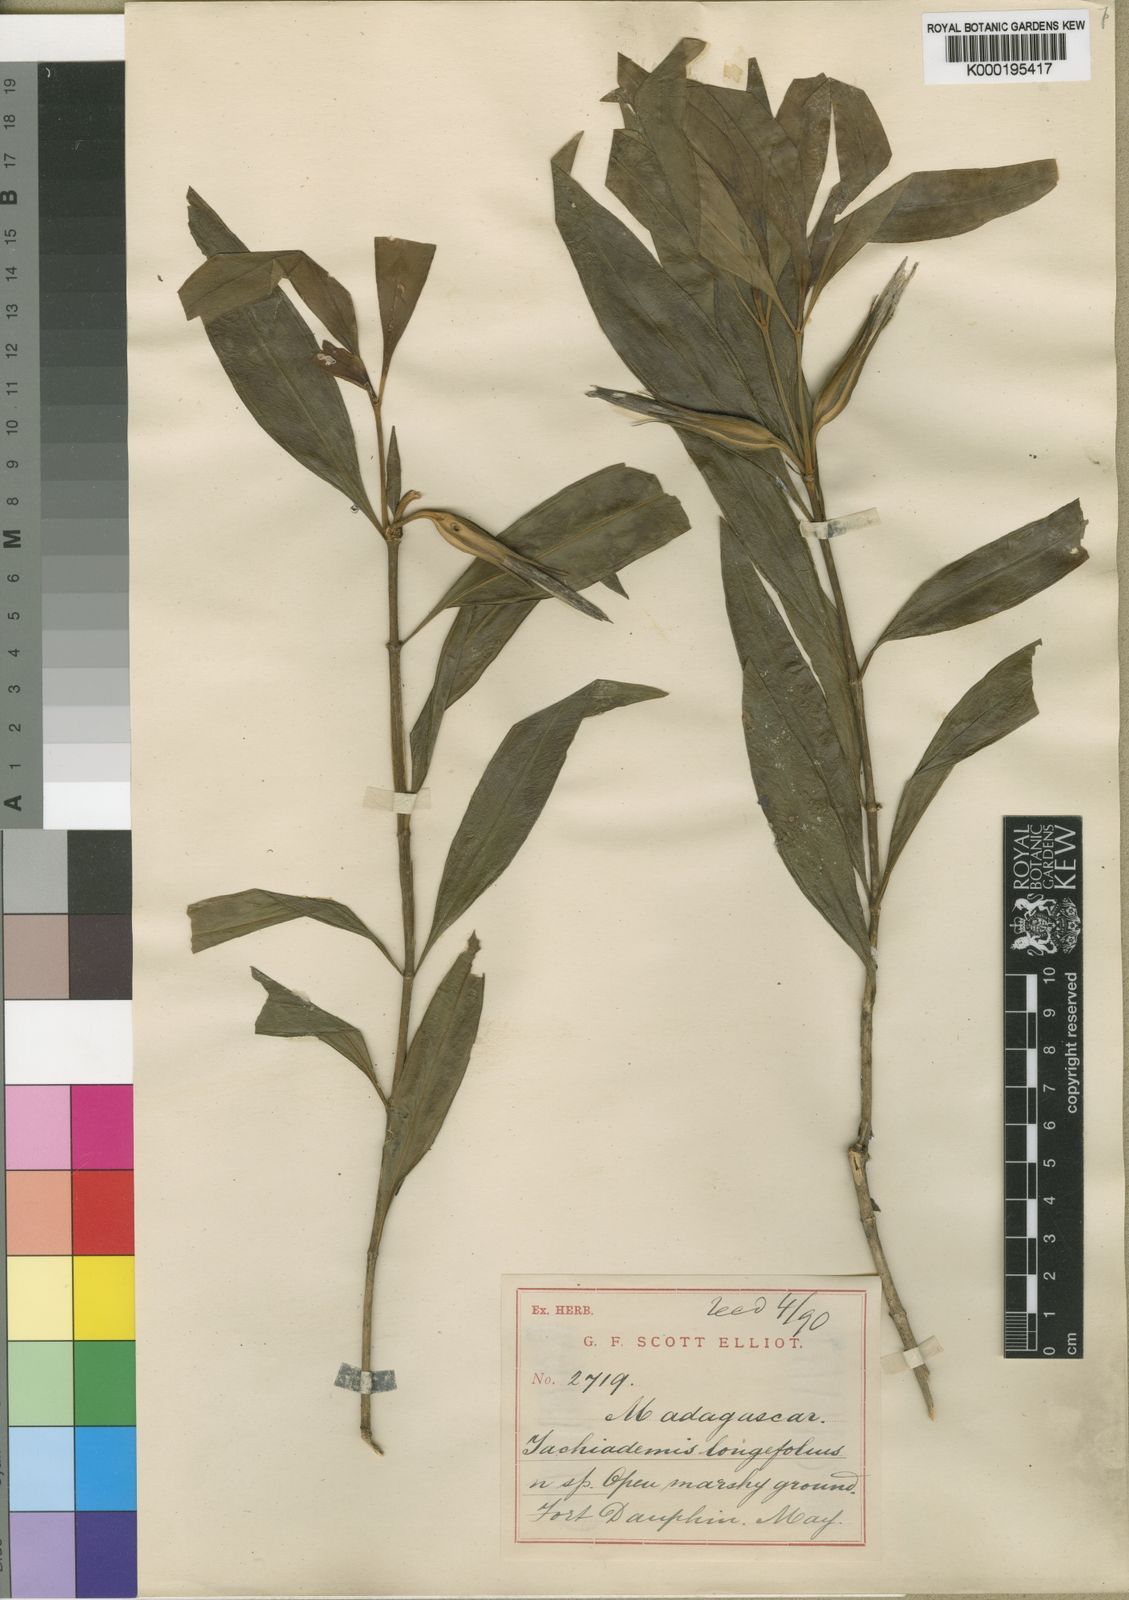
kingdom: Plantae
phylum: Tracheophyta
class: Magnoliopsida
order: Gentianales
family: Gentianaceae
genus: Tachiadenus
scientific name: Tachiadenus longifolius
